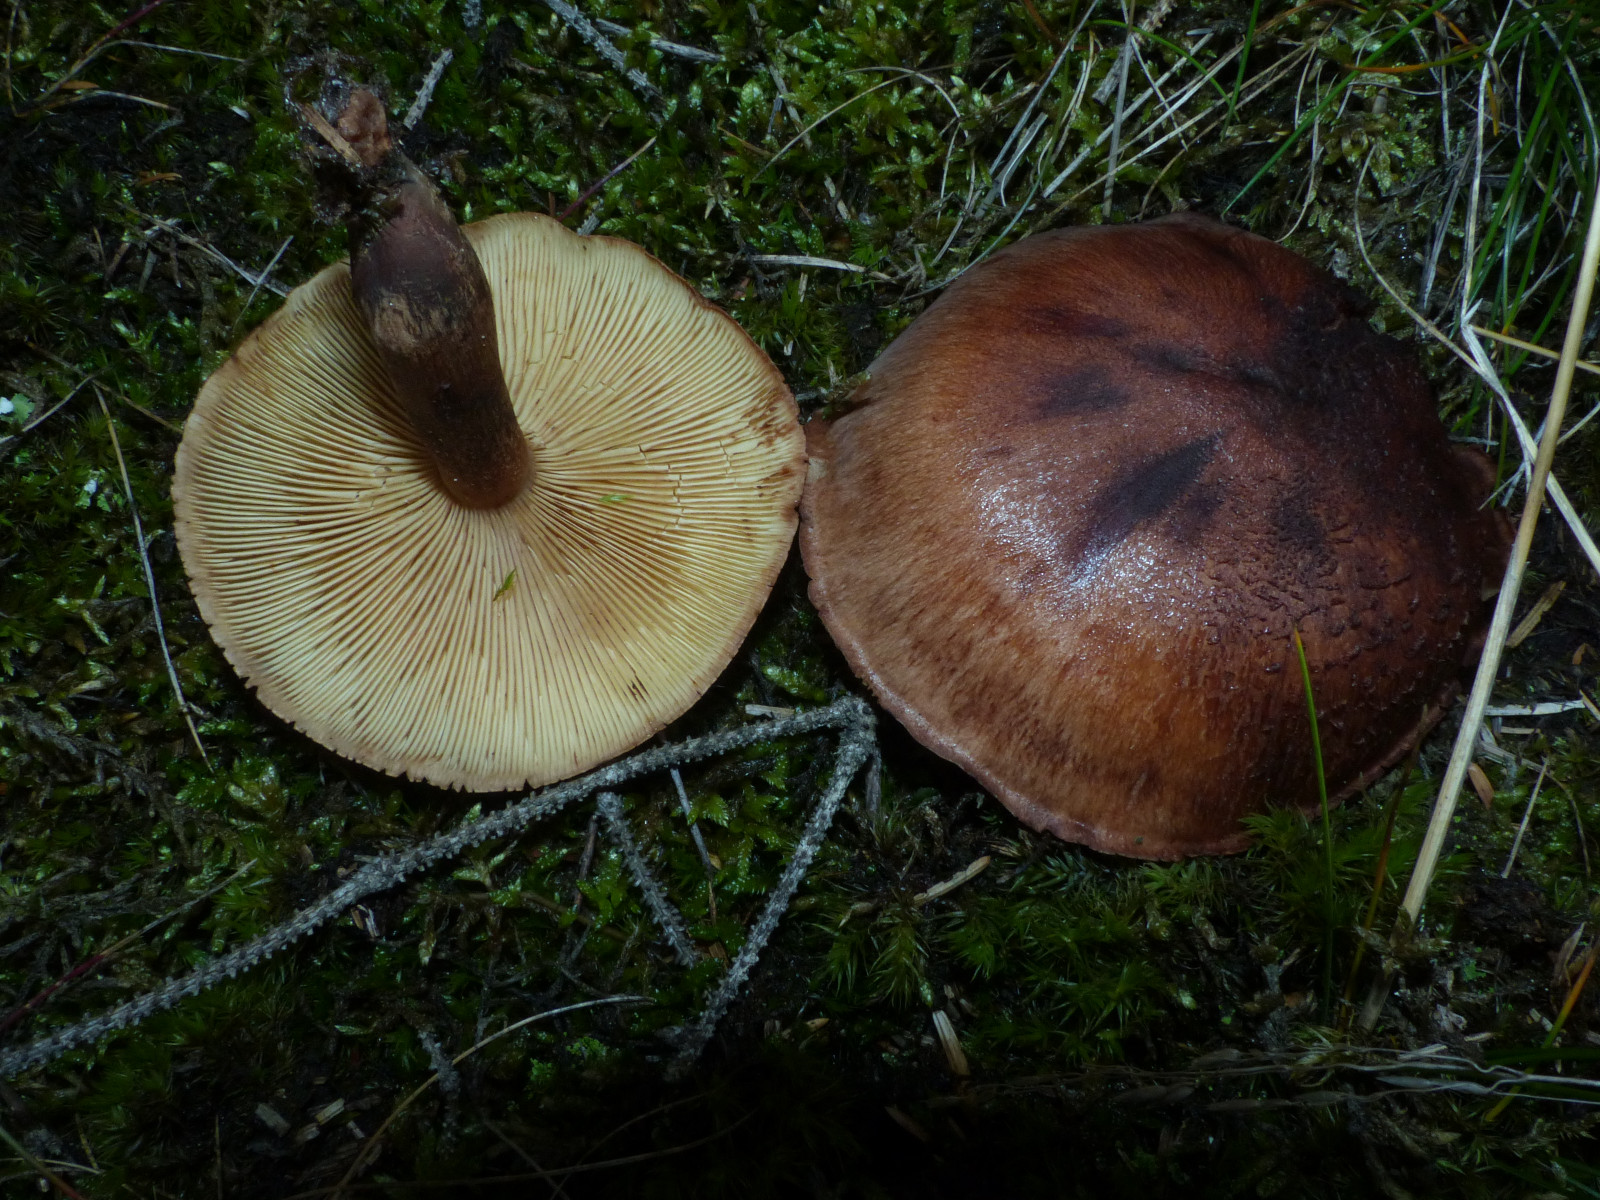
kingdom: Fungi
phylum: Basidiomycota
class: Agaricomycetes
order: Agaricales
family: Tricholomataceae
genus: Tricholoma
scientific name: Tricholoma fulvum
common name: birke-ridderhat
